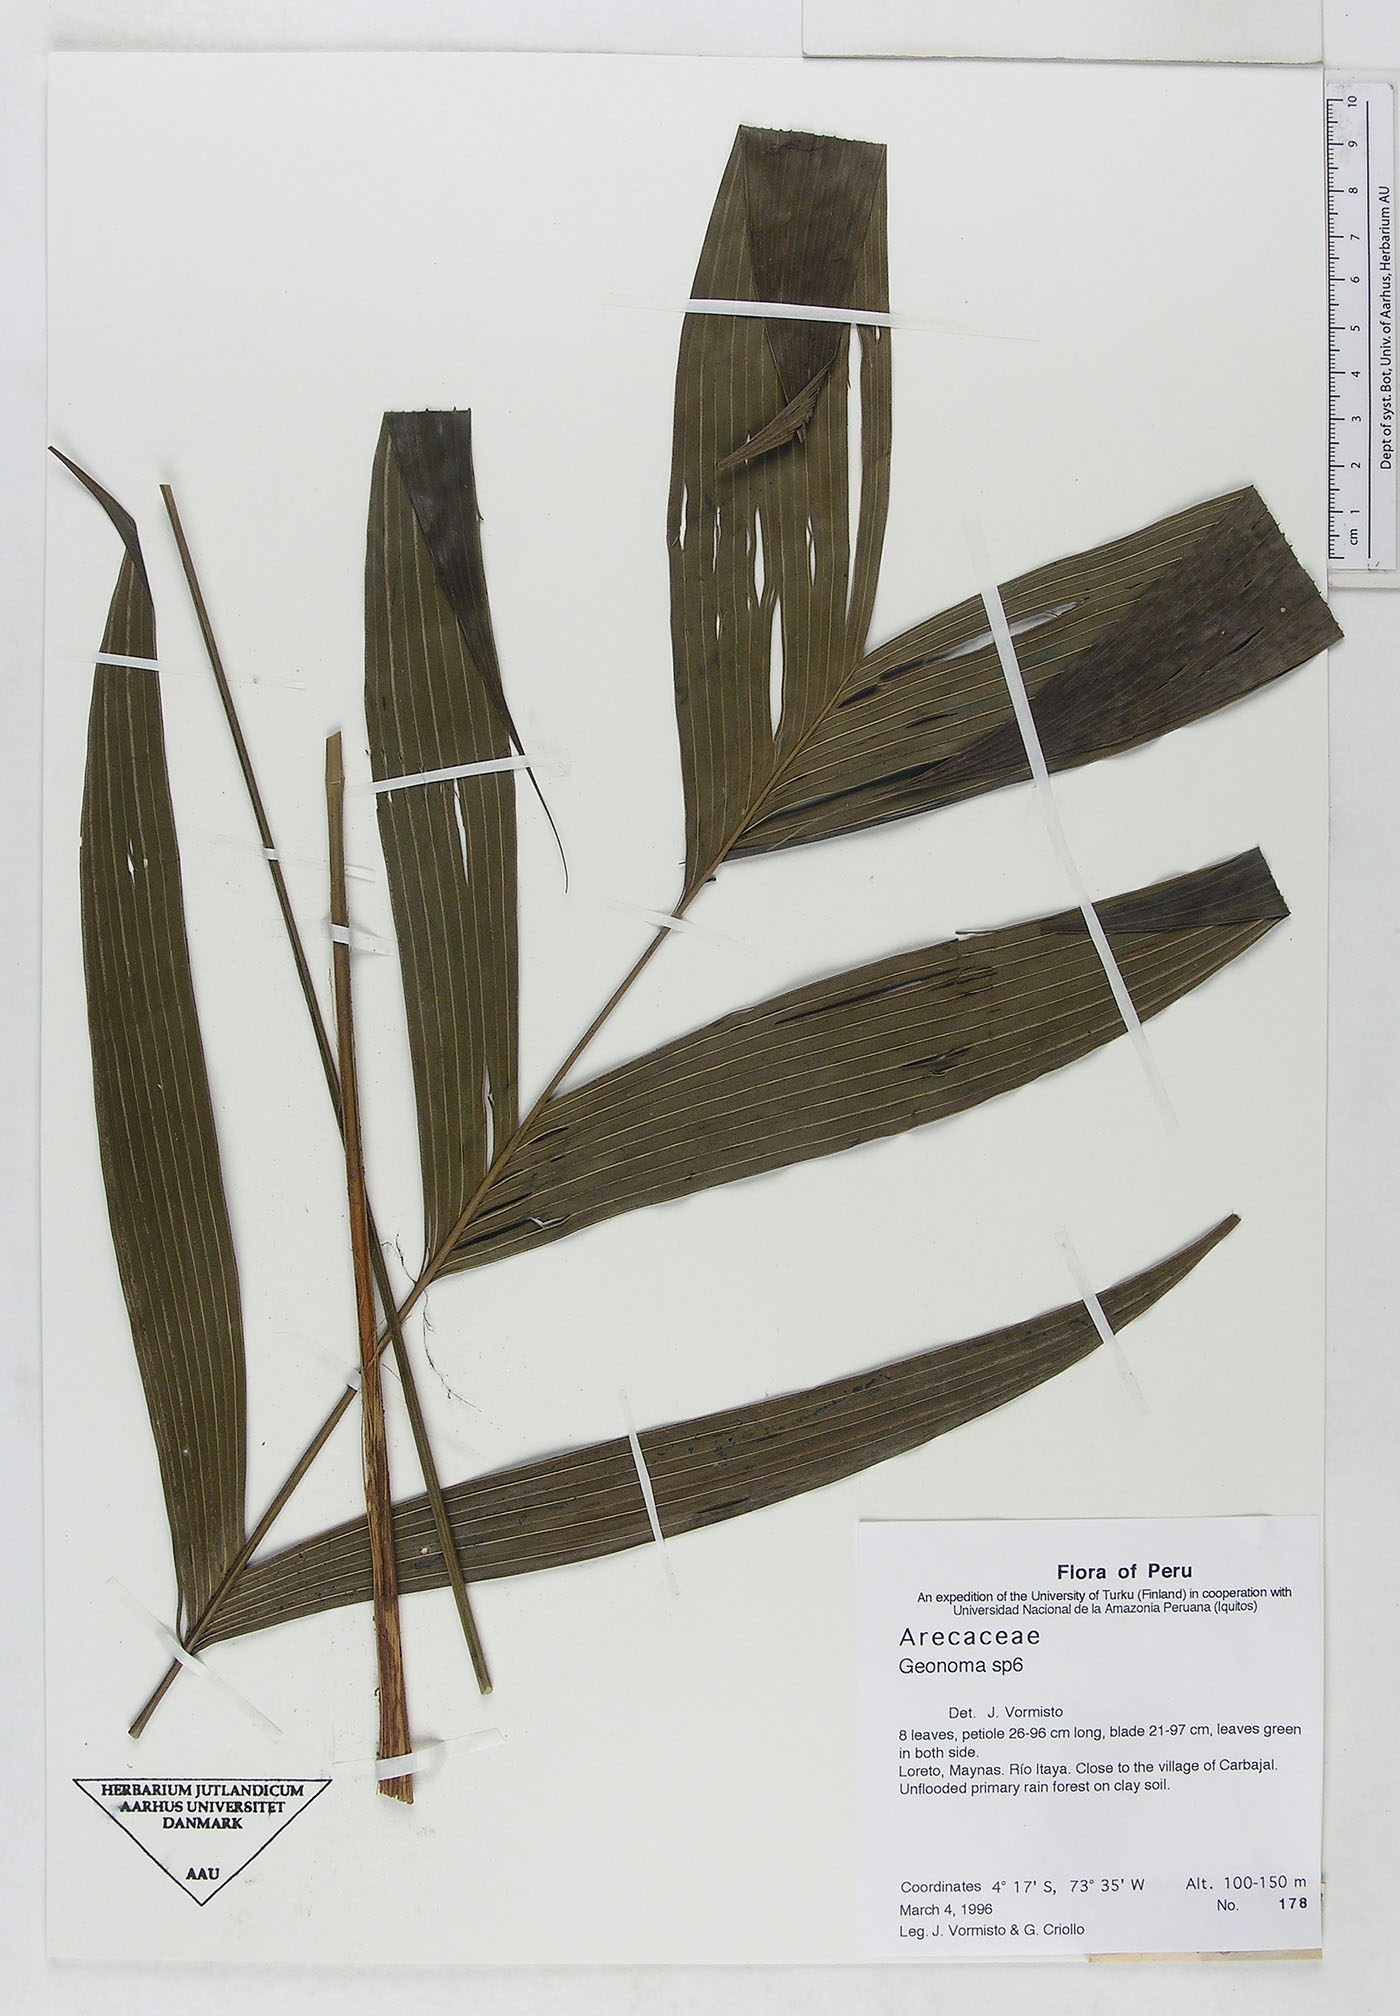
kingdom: Plantae
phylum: Tracheophyta
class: Liliopsida
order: Arecales
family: Arecaceae
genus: Geonoma
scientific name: Geonoma
